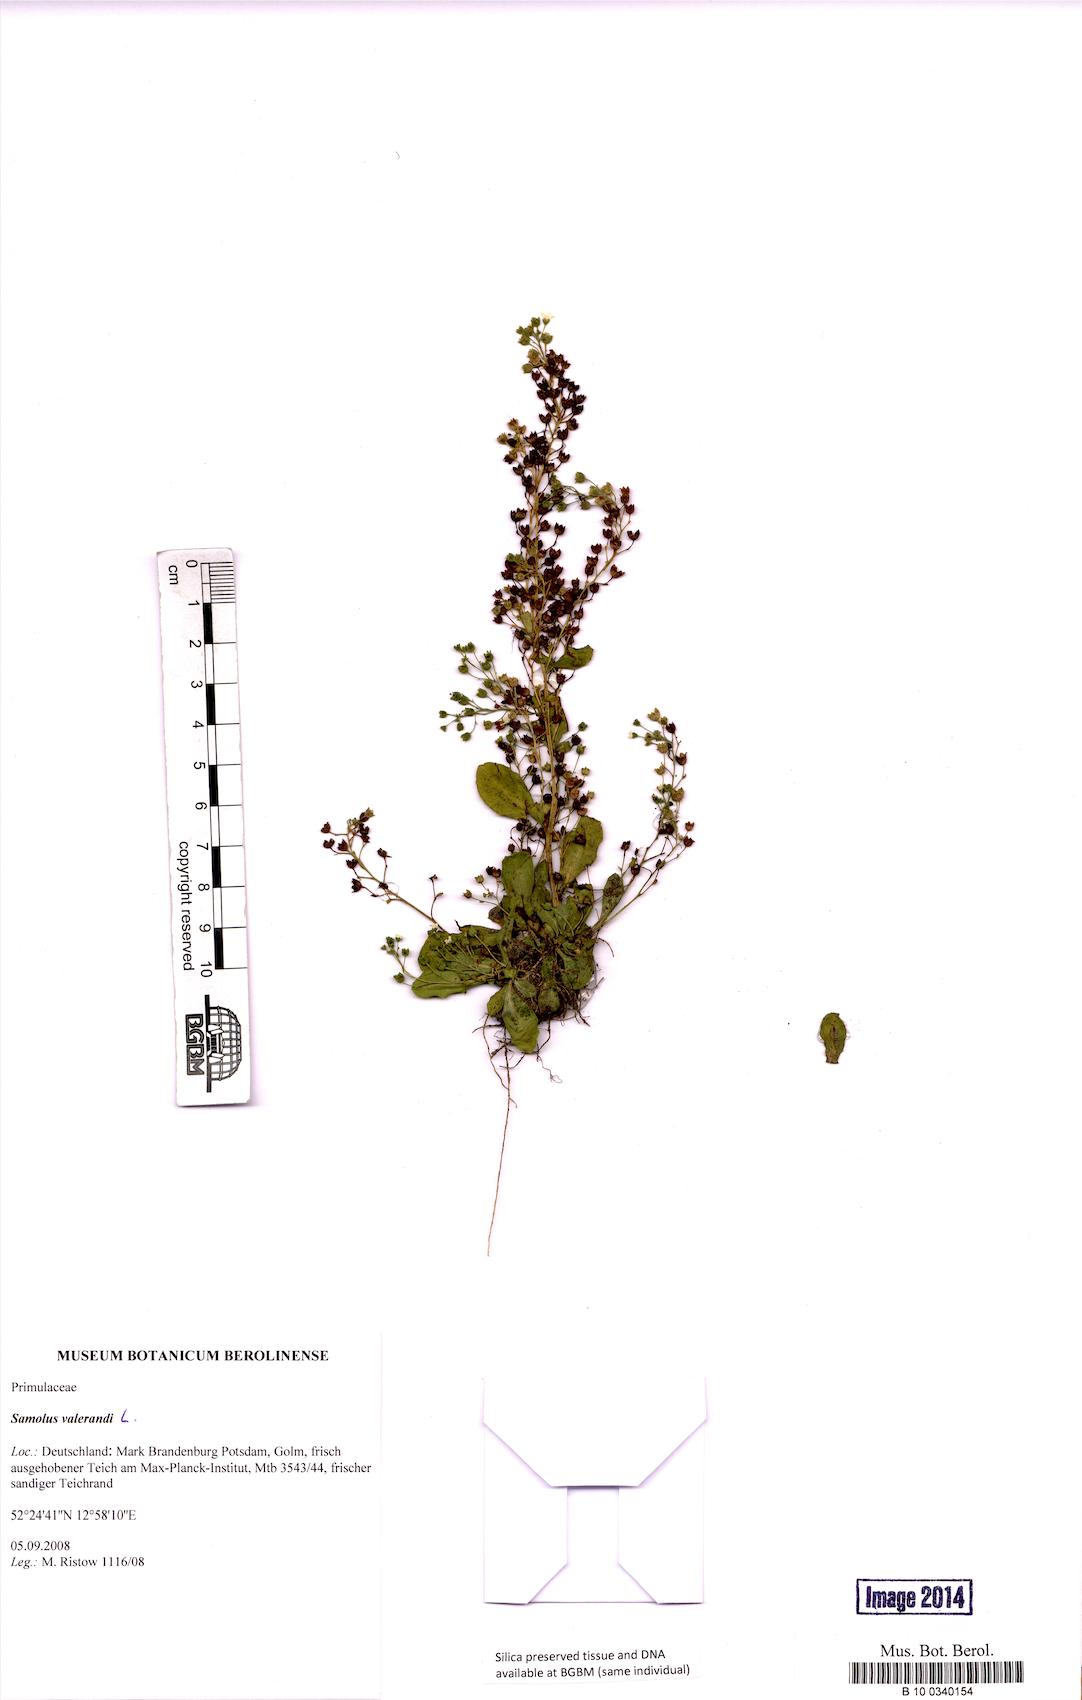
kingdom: Plantae
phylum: Tracheophyta
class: Magnoliopsida
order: Ericales
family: Primulaceae
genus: Samolus
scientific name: Samolus valerandi
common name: Brookweed
